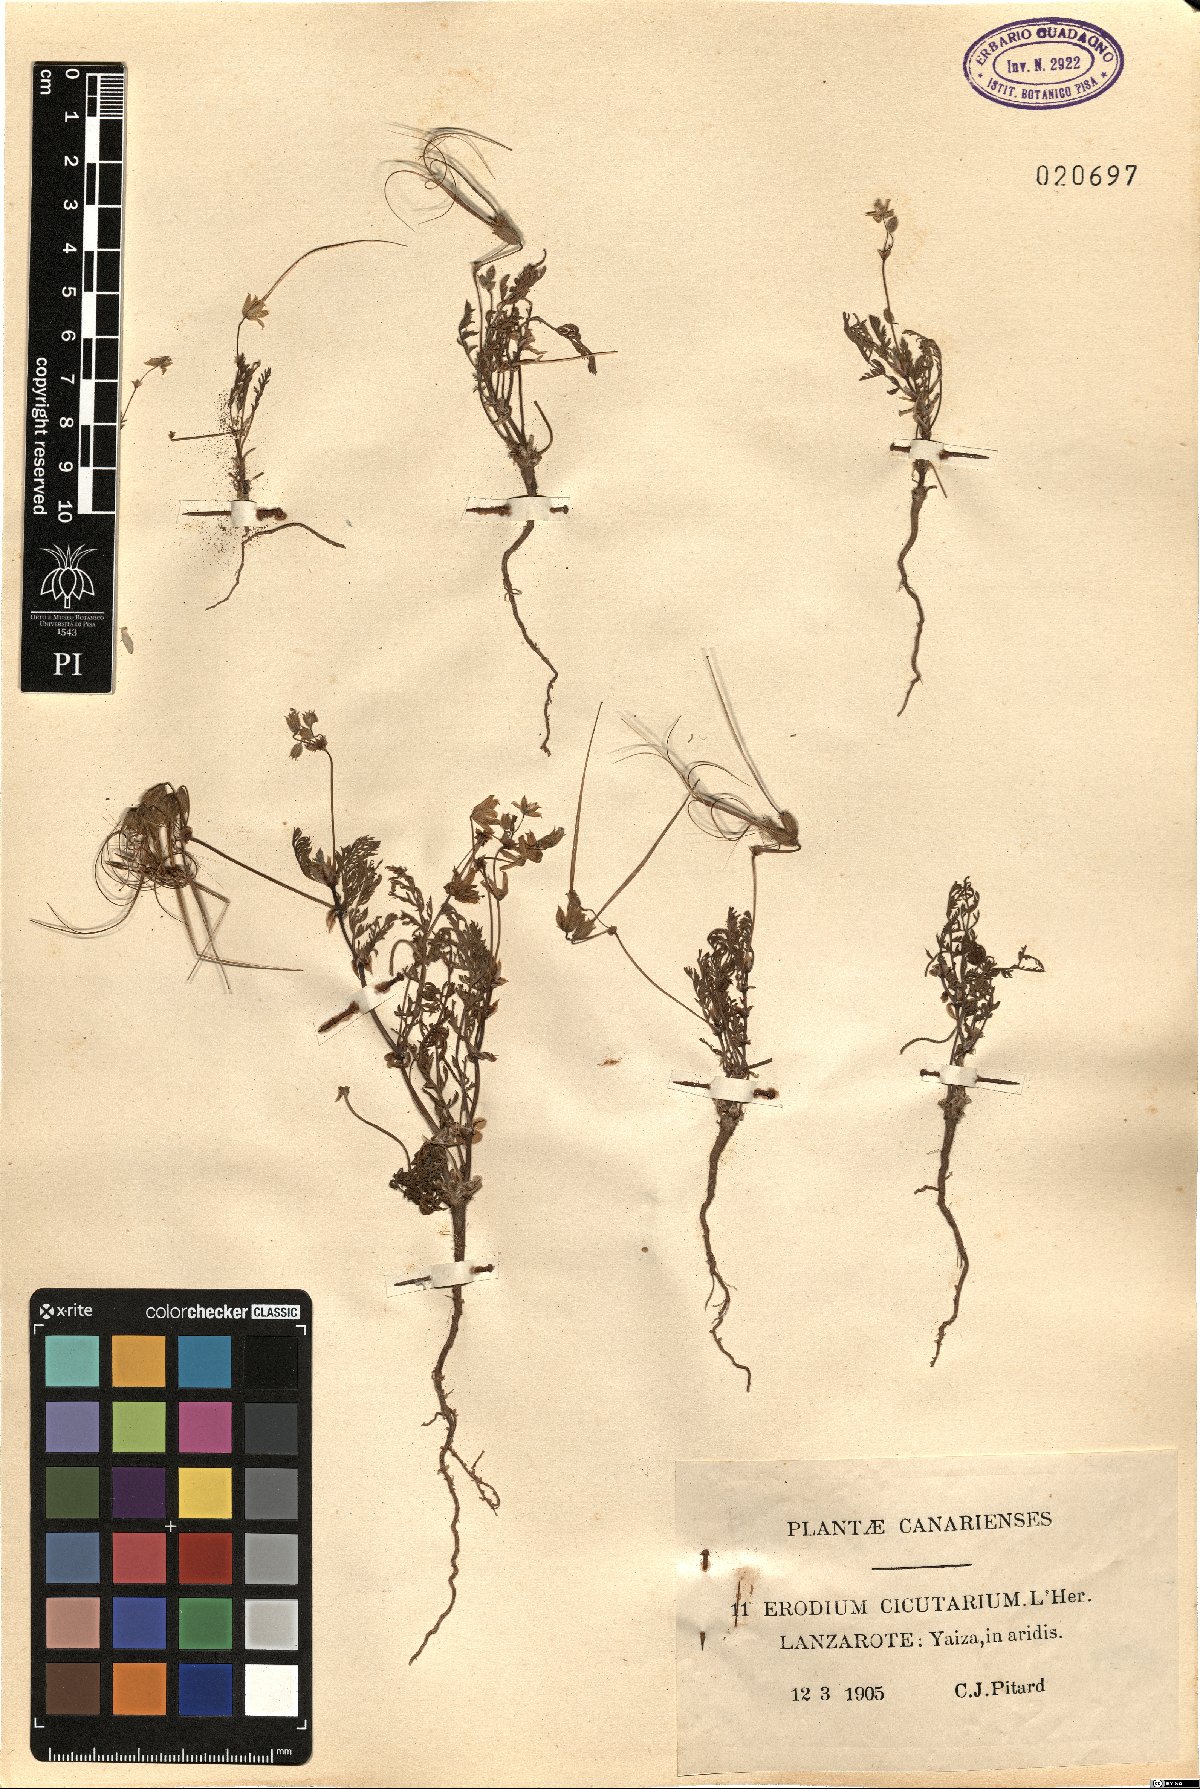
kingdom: Plantae
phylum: Tracheophyta
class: Magnoliopsida
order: Geraniales
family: Geraniaceae
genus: Erodium
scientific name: Erodium cicutarium
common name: Common stork's-bill
